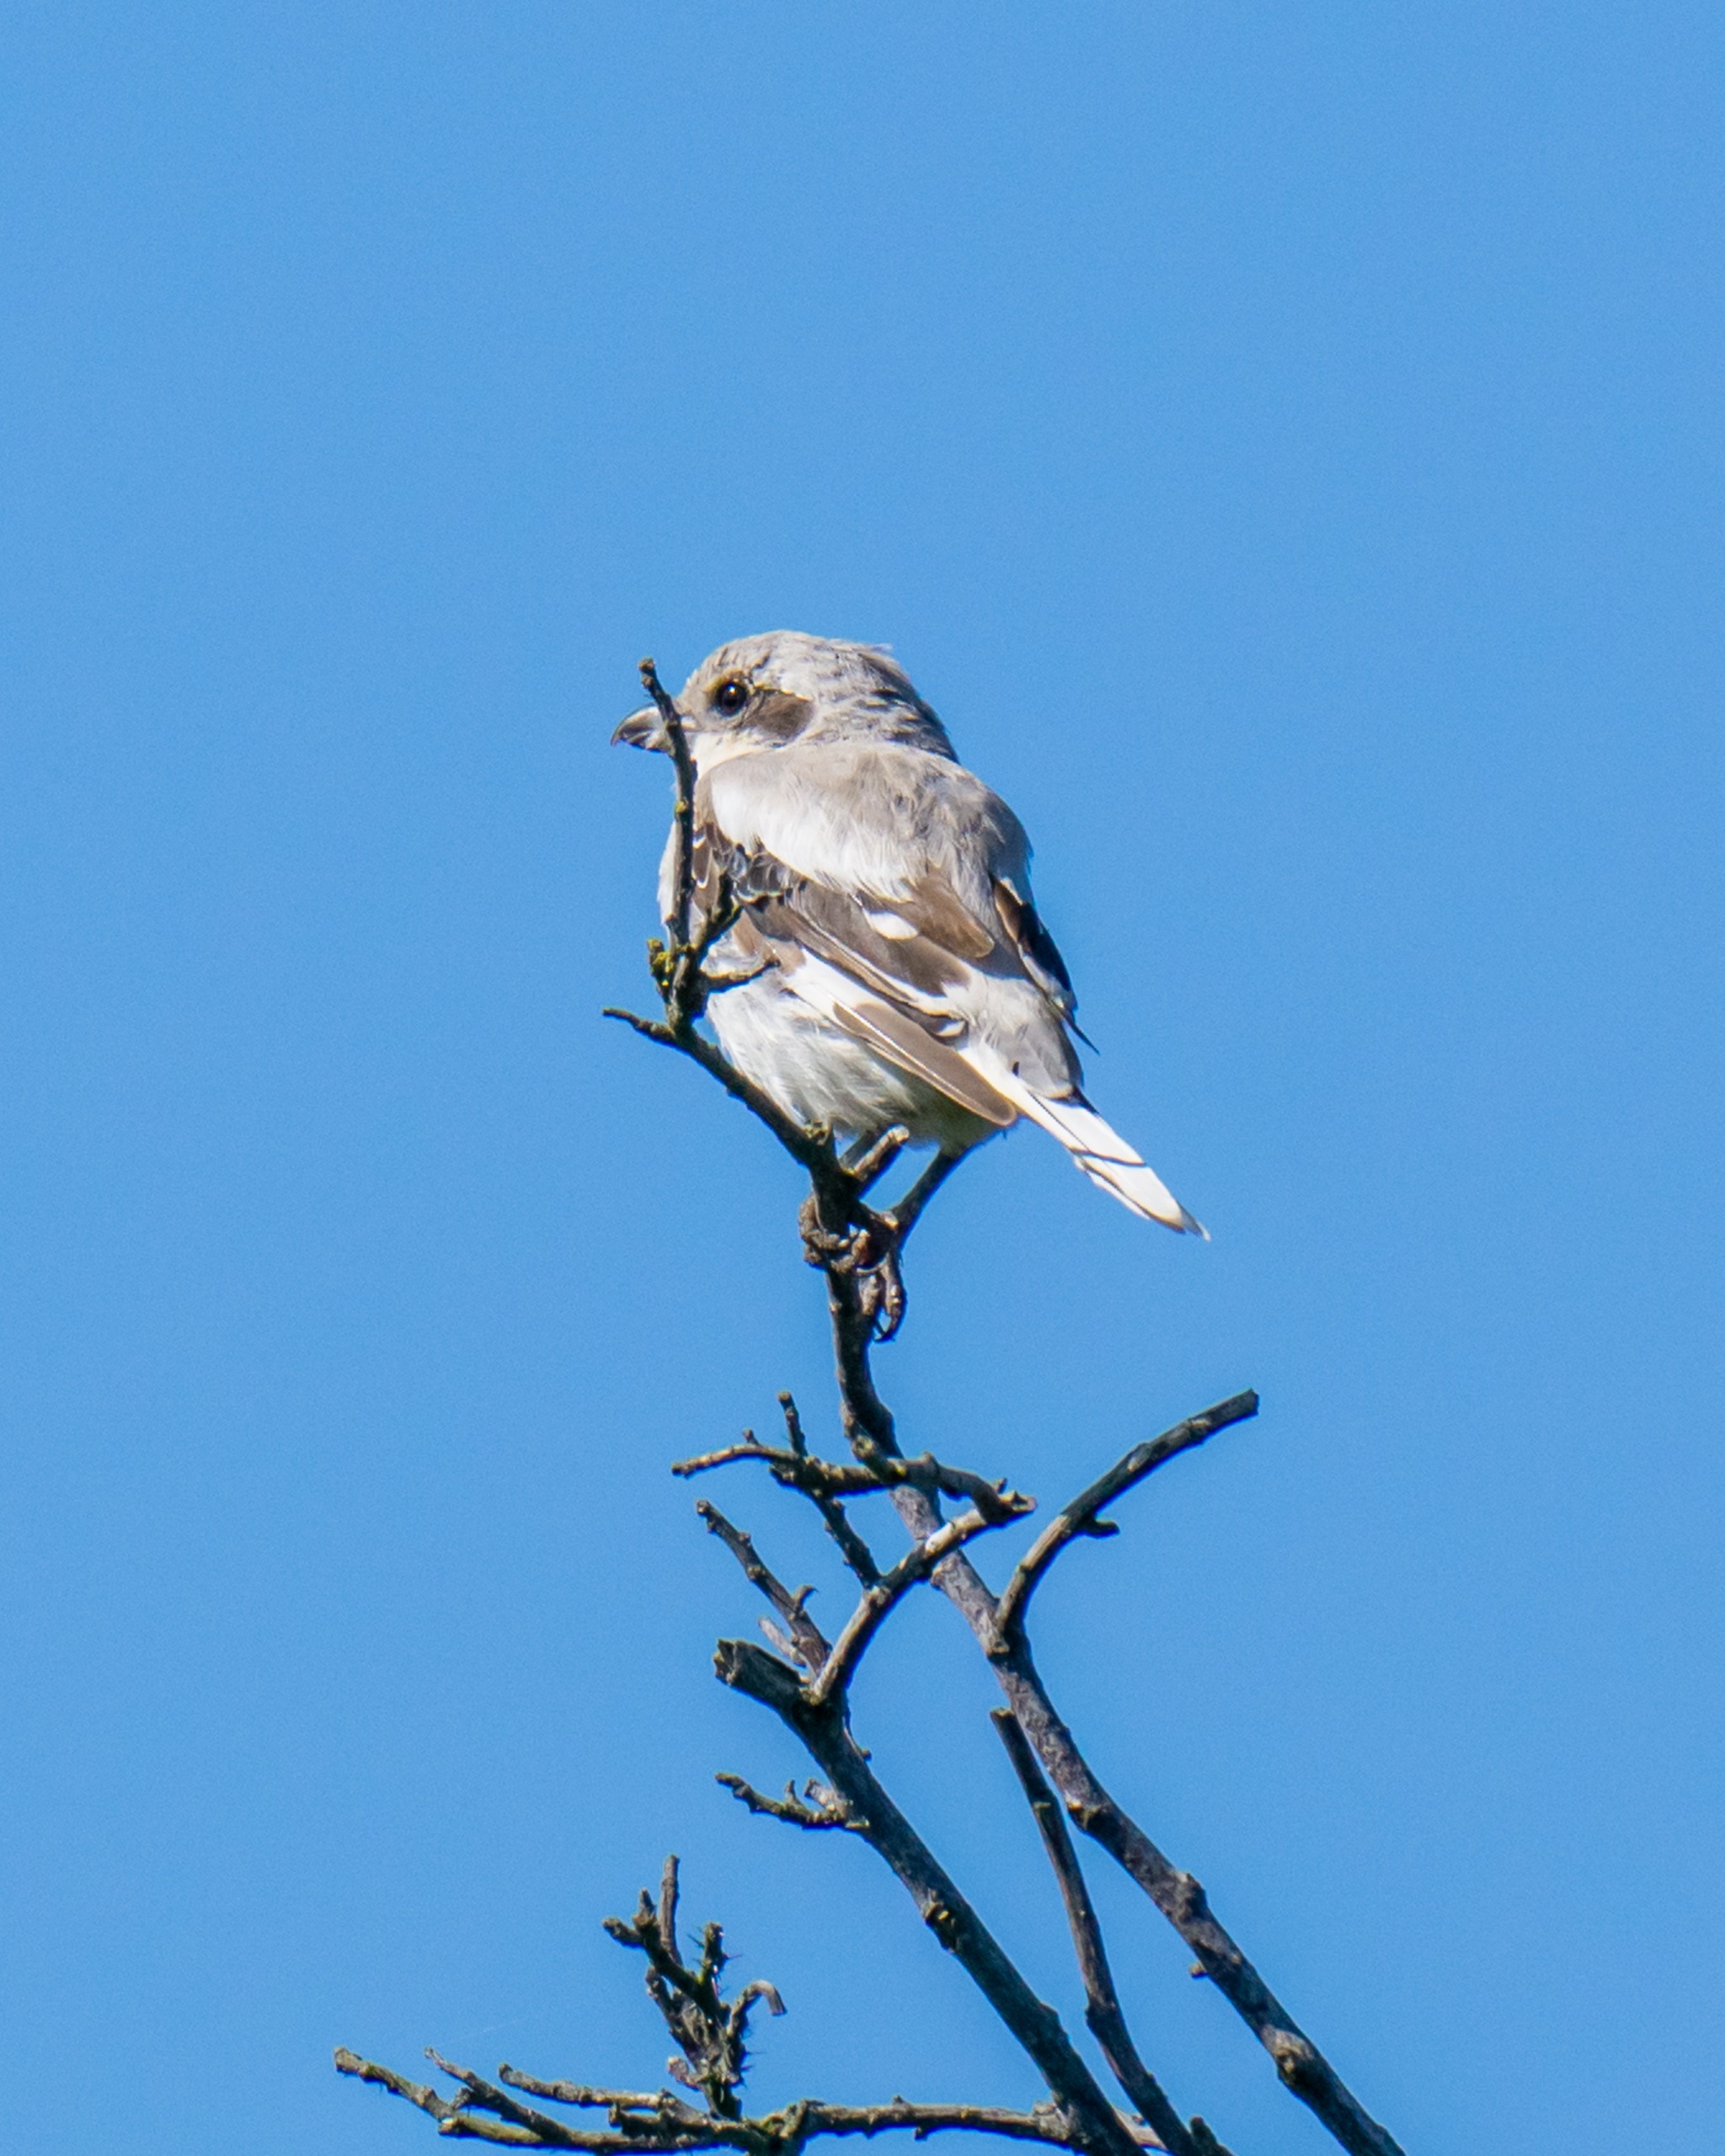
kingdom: Animalia
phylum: Chordata
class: Aves
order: Passeriformes
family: Laniidae
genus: Lanius
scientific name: Lanius excubitor
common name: Ørkentornskade
